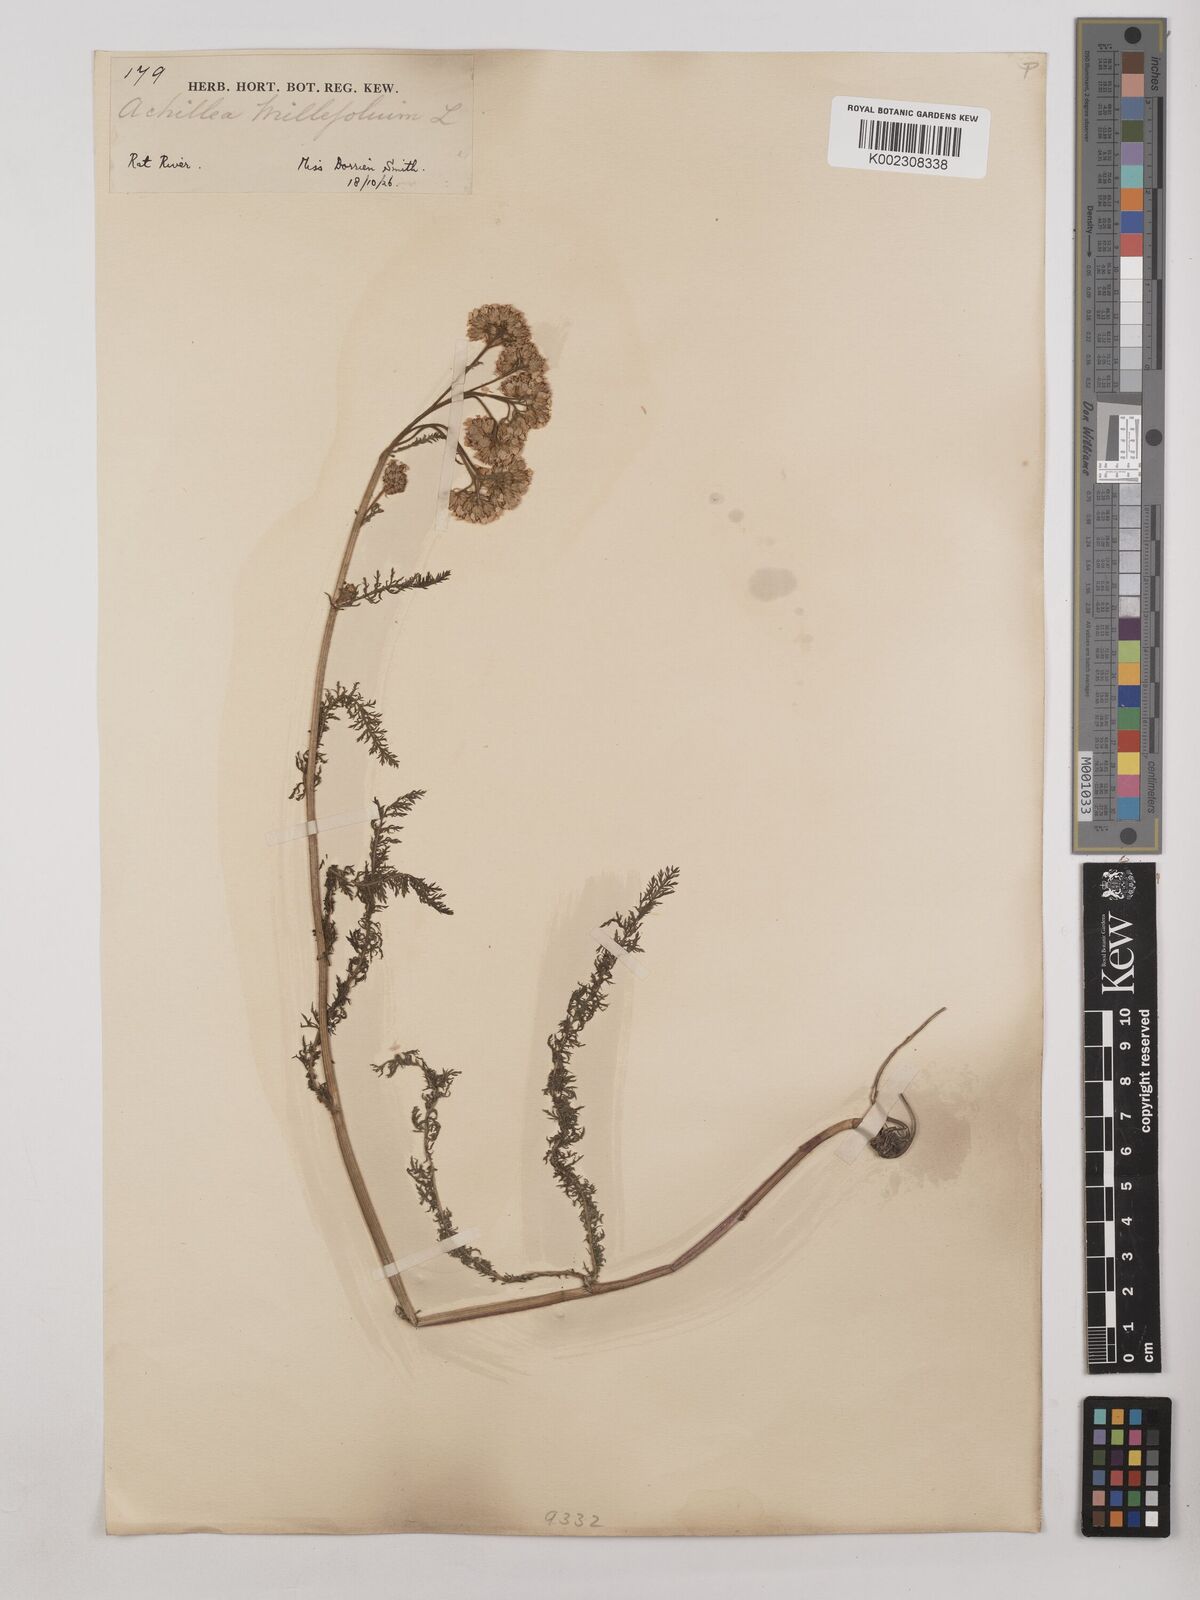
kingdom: Plantae
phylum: Tracheophyta
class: Magnoliopsida
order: Asterales
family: Asteraceae
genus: Achillea
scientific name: Achillea millefolium
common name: Yarrow
